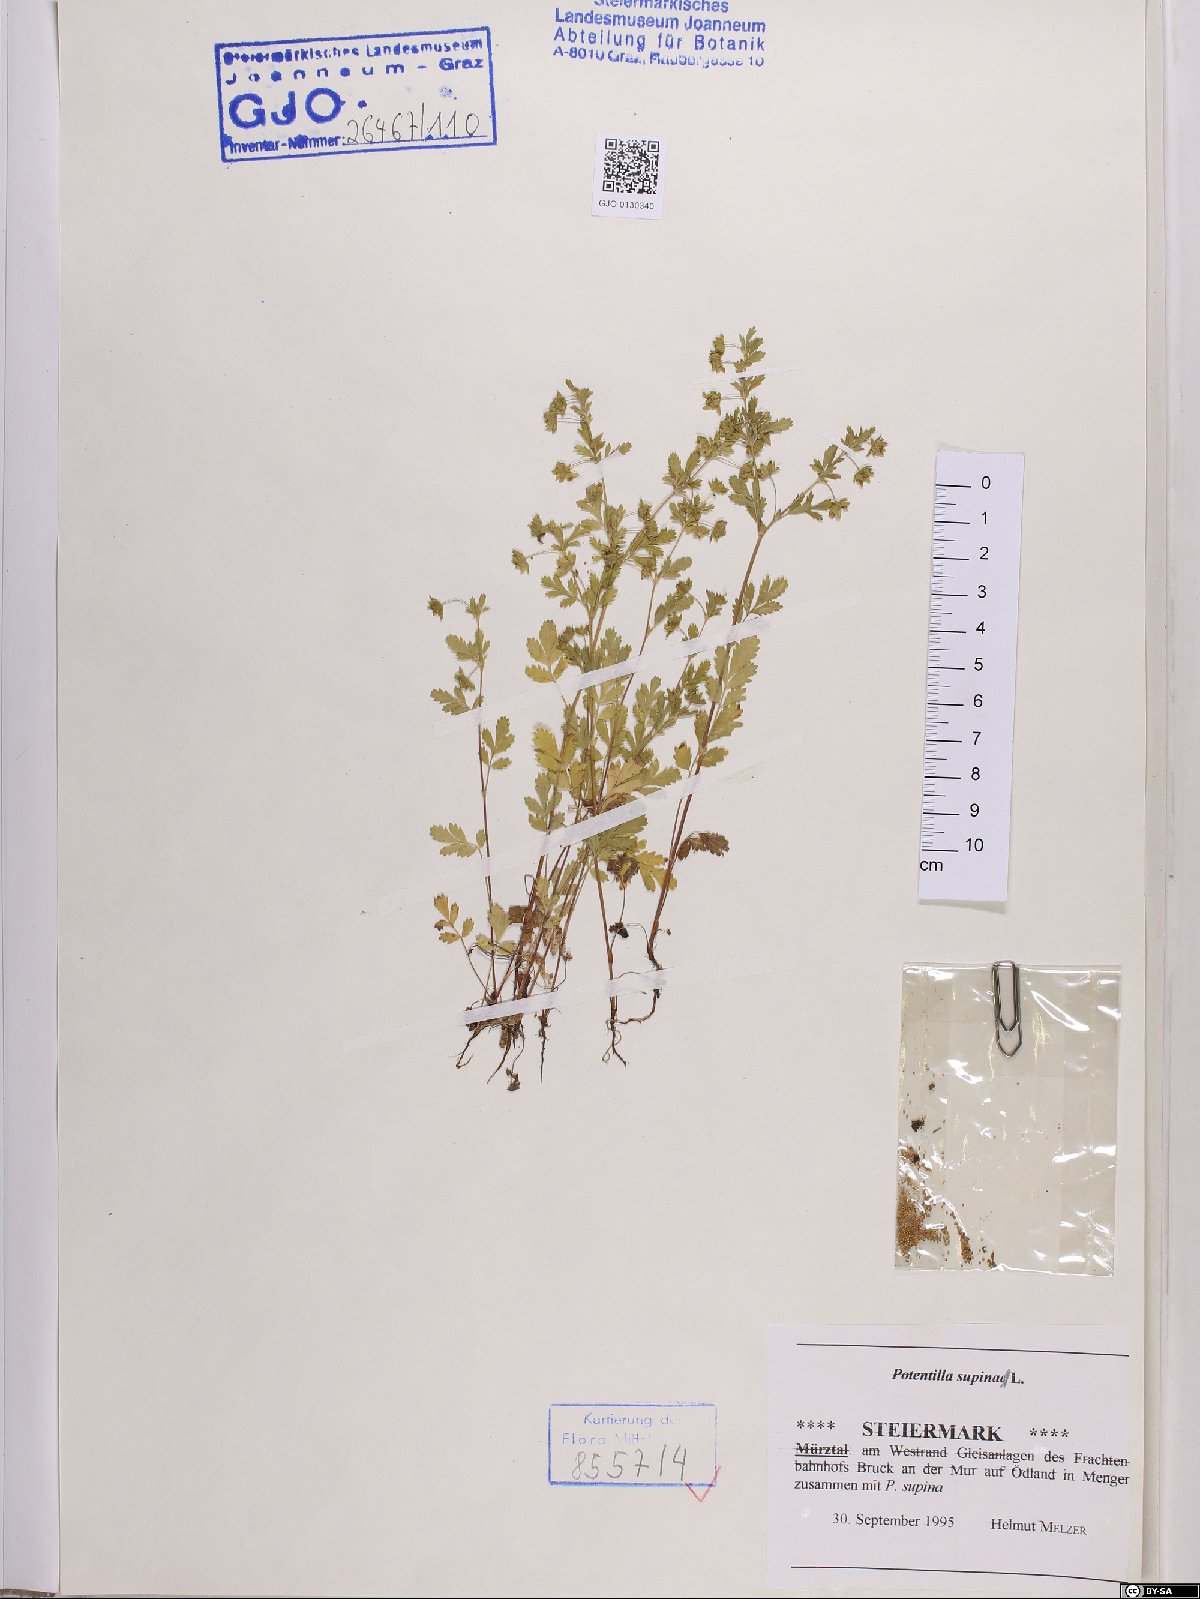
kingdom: Plantae
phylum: Tracheophyta
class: Magnoliopsida
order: Rosales
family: Rosaceae
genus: Potentilla
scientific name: Potentilla supina
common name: Prostrate cinquefoil
